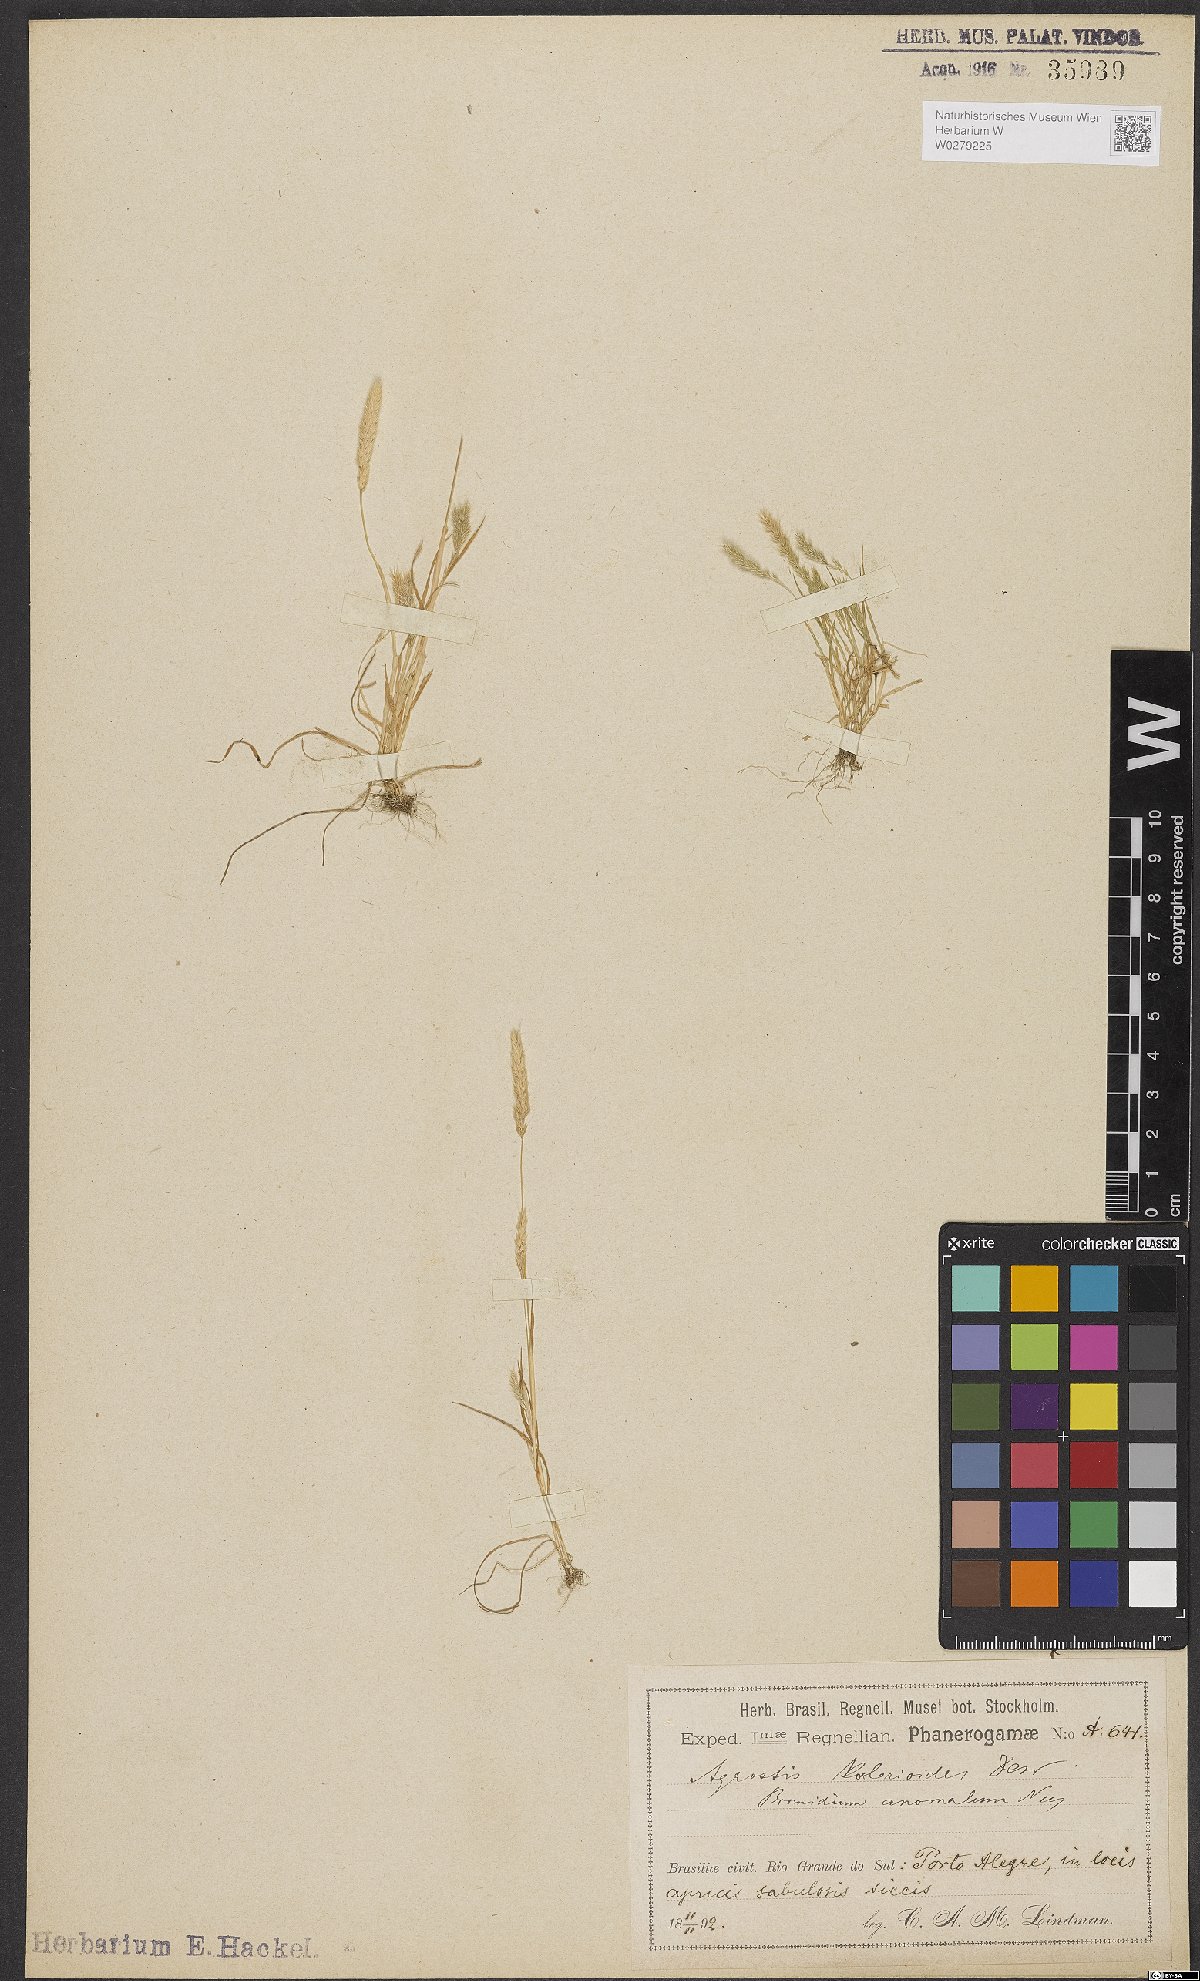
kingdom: Plantae
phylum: Tracheophyta
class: Liliopsida
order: Poales
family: Poaceae
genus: Agrostis
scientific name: Agrostis hygrometrica
